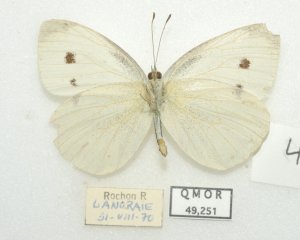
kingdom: Animalia
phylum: Arthropoda
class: Insecta
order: Lepidoptera
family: Pieridae
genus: Pieris
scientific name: Pieris rapae
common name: Cabbage White
